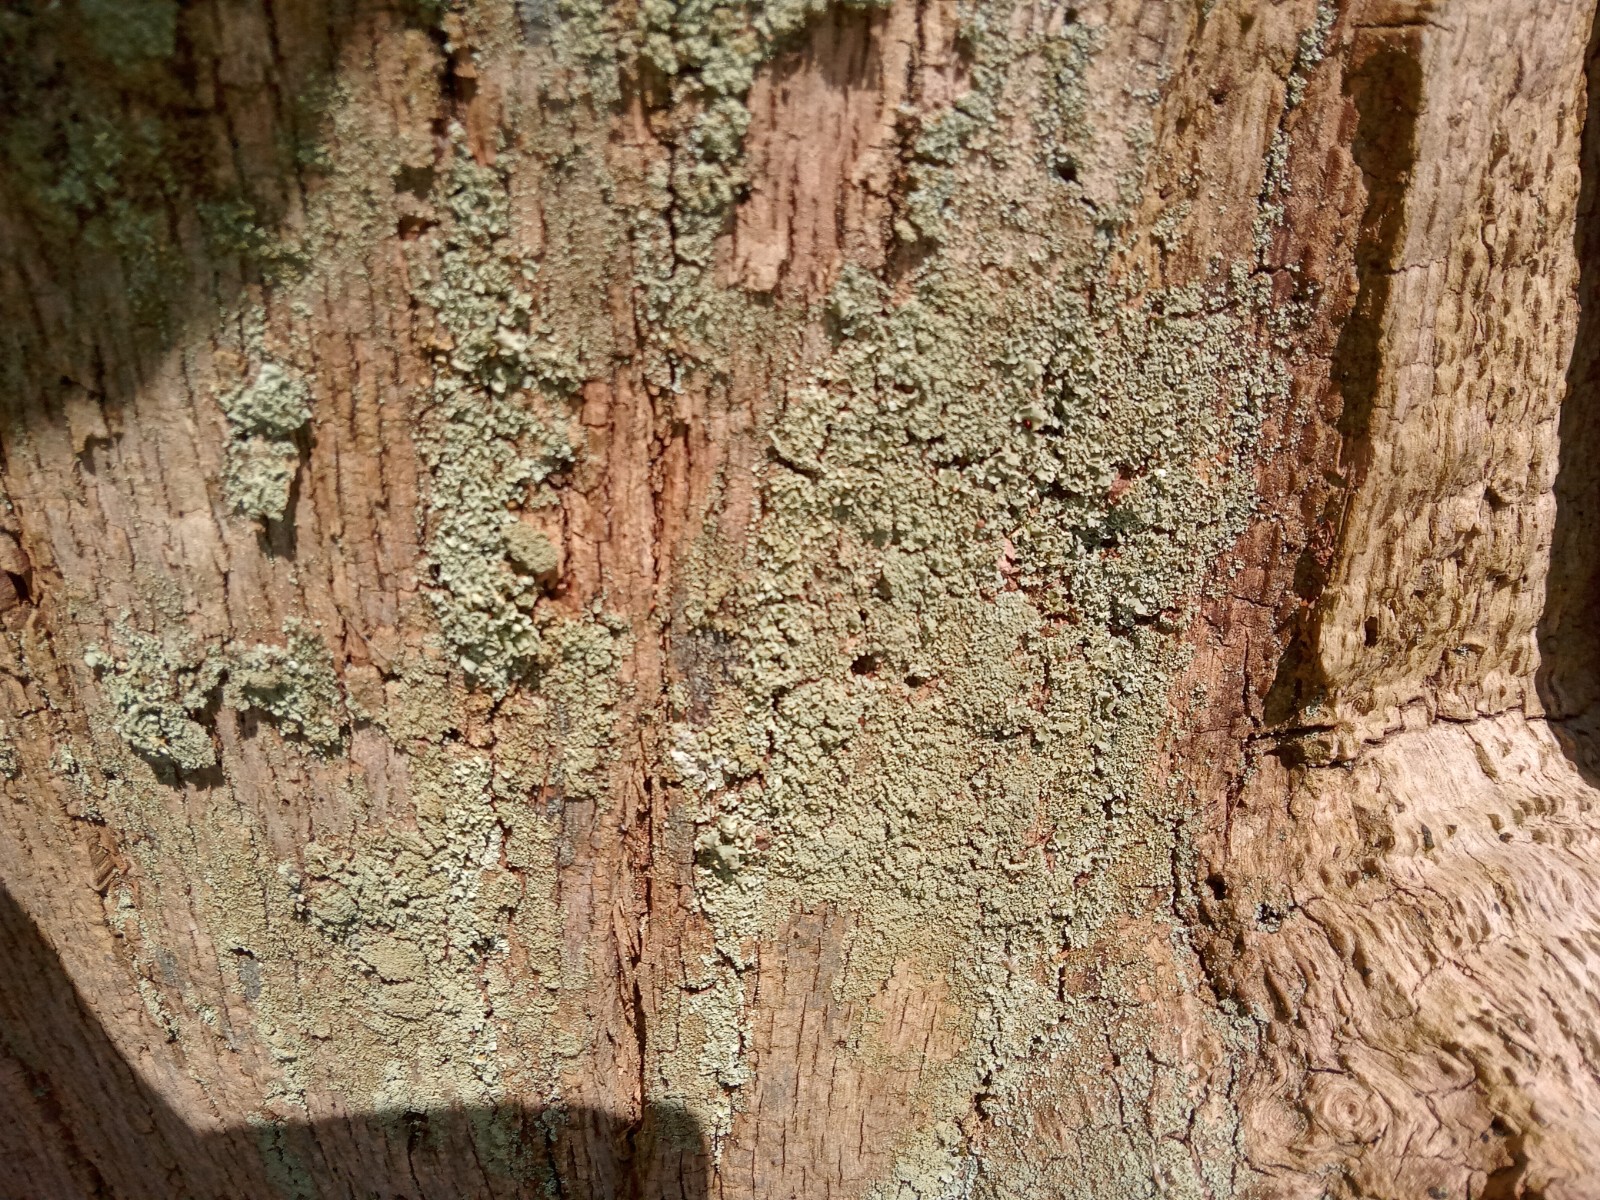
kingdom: Fungi
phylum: Ascomycota
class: Lecanoromycetes
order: Lecanorales
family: Cladoniaceae
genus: Cladonia
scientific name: Cladonia parasitica
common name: dværg-bægerlav
